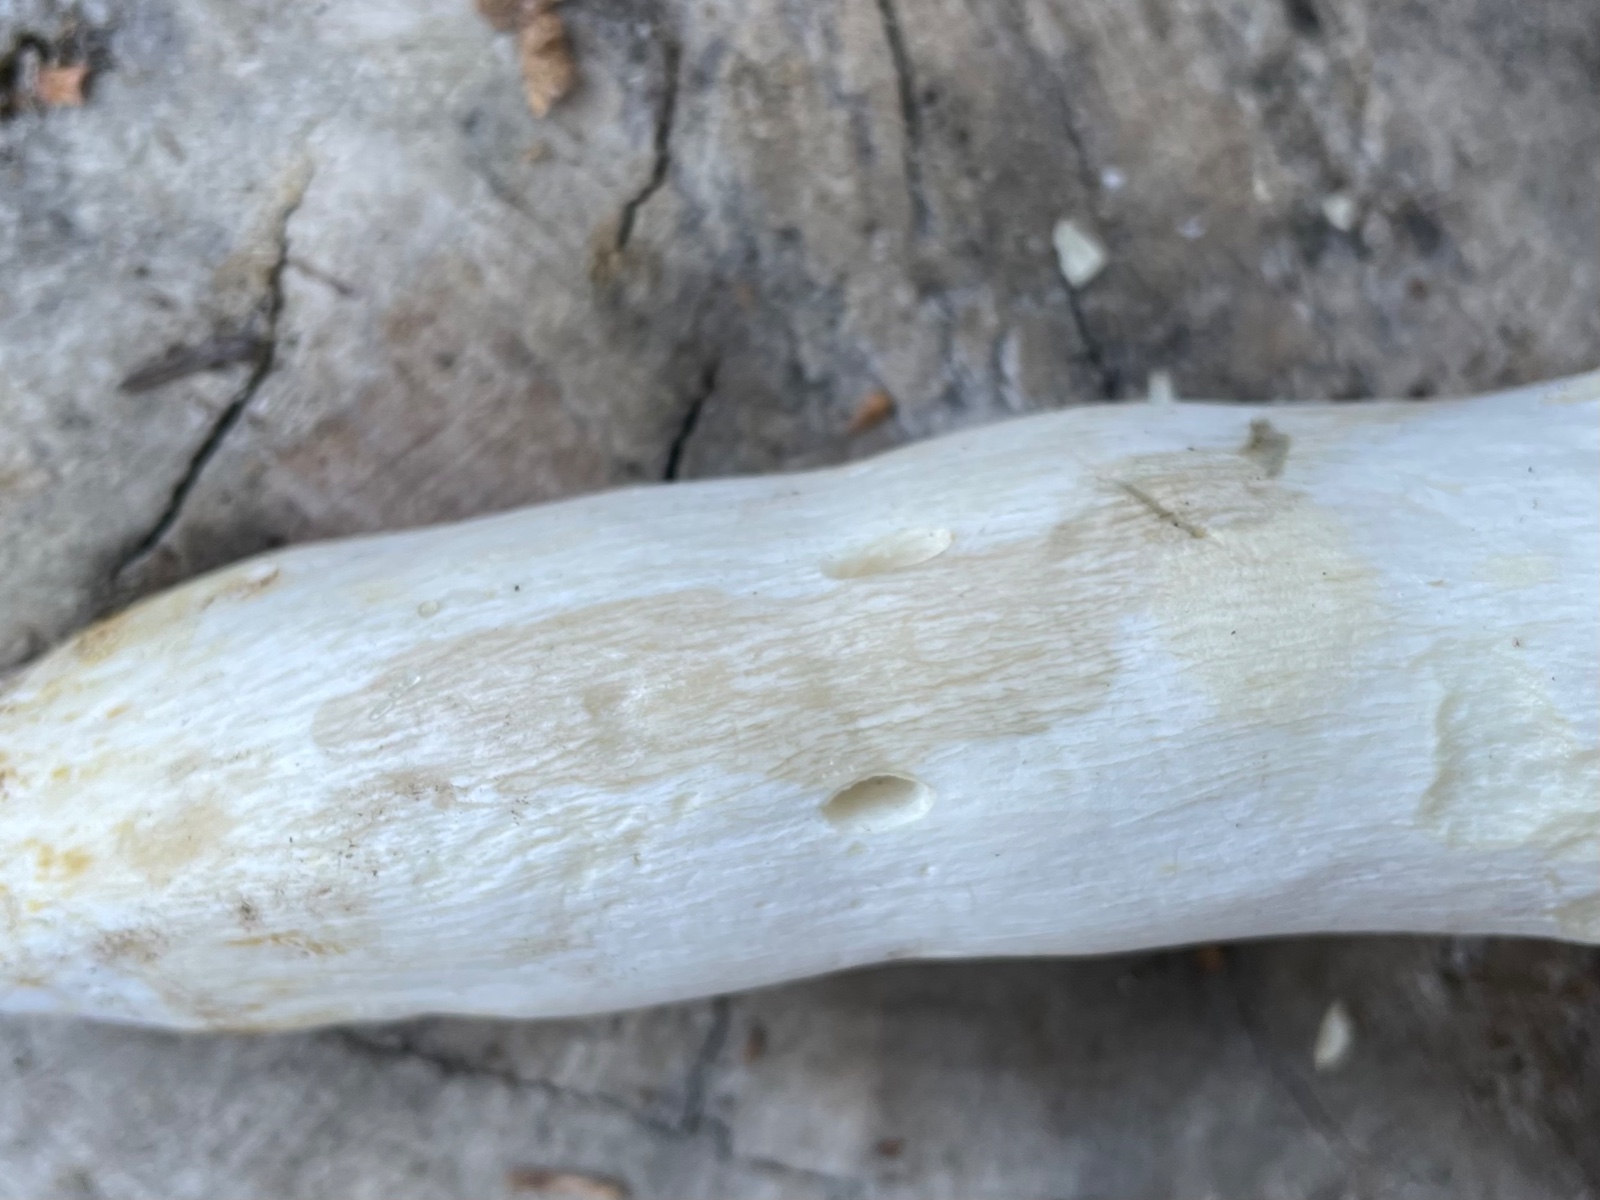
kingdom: Fungi
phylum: Basidiomycota
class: Agaricomycetes
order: Russulales
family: Russulaceae
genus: Russula
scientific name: Russula
